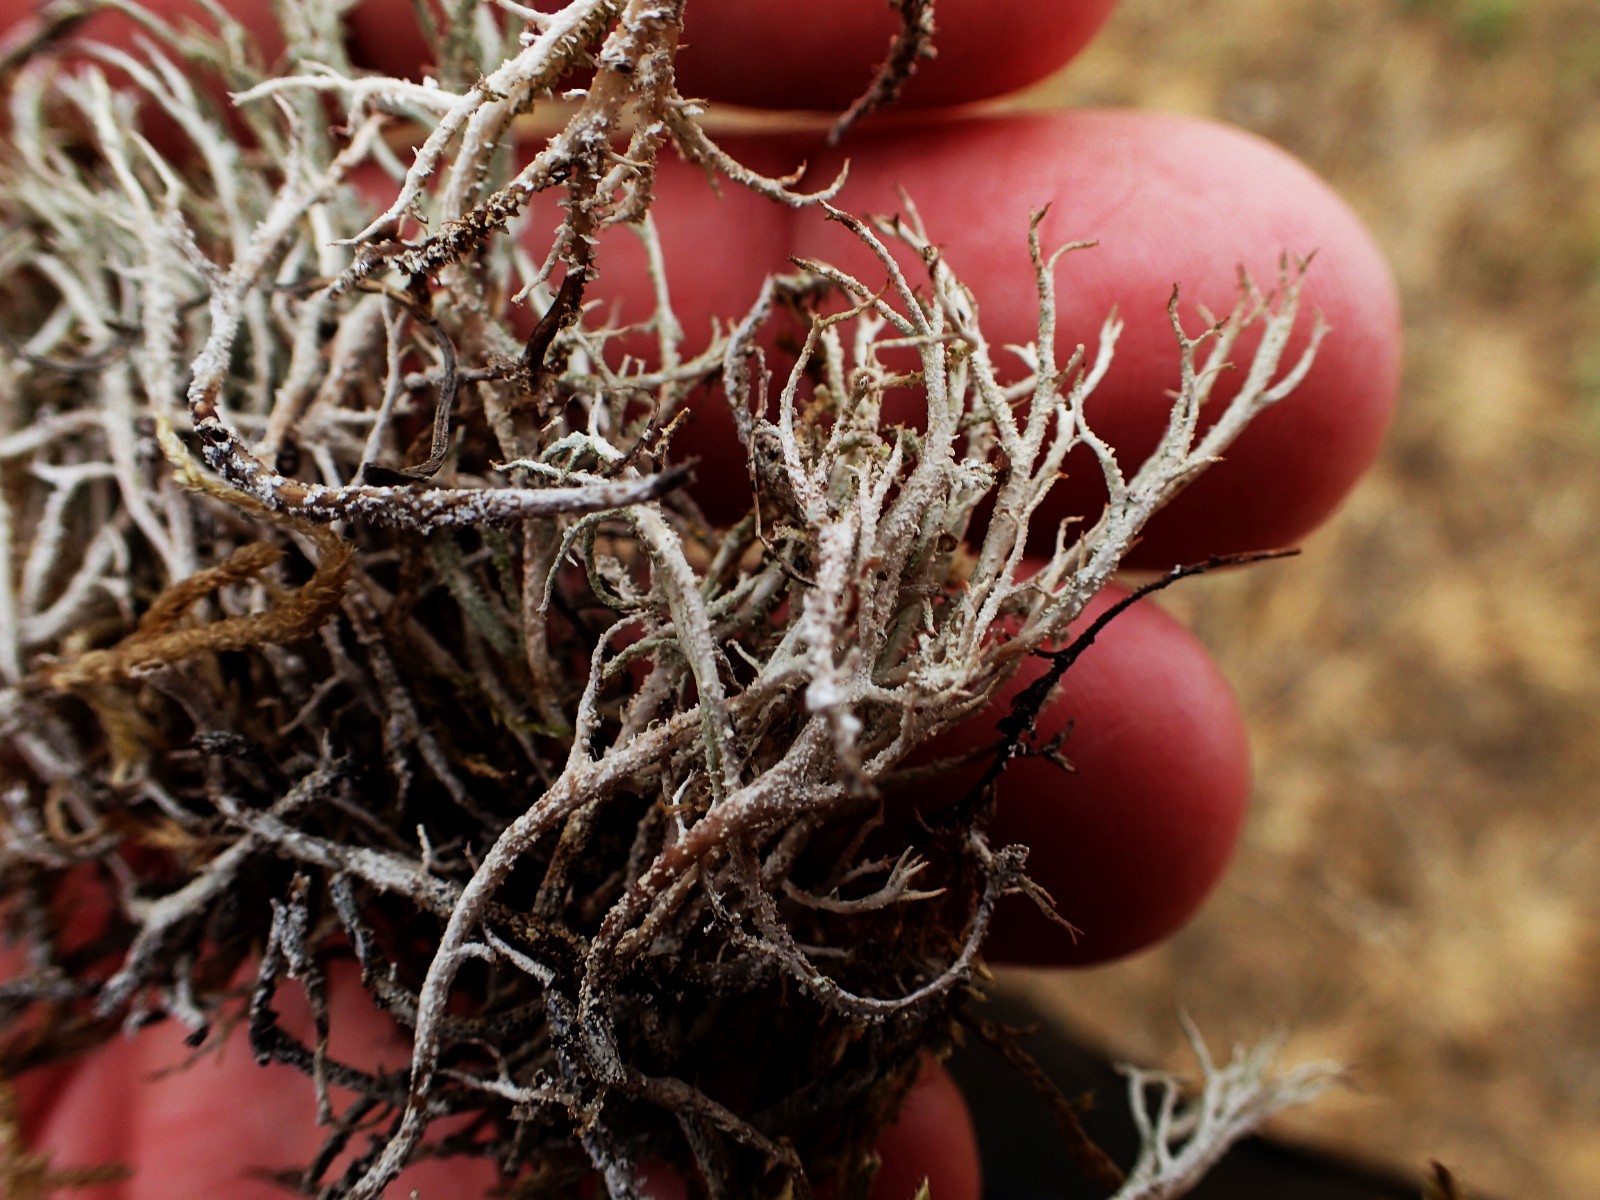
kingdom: Fungi
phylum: Ascomycota
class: Lecanoromycetes
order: Lecanorales
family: Cladoniaceae
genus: Cladonia
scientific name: Cladonia scabriuscula
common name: ru bægerlav
